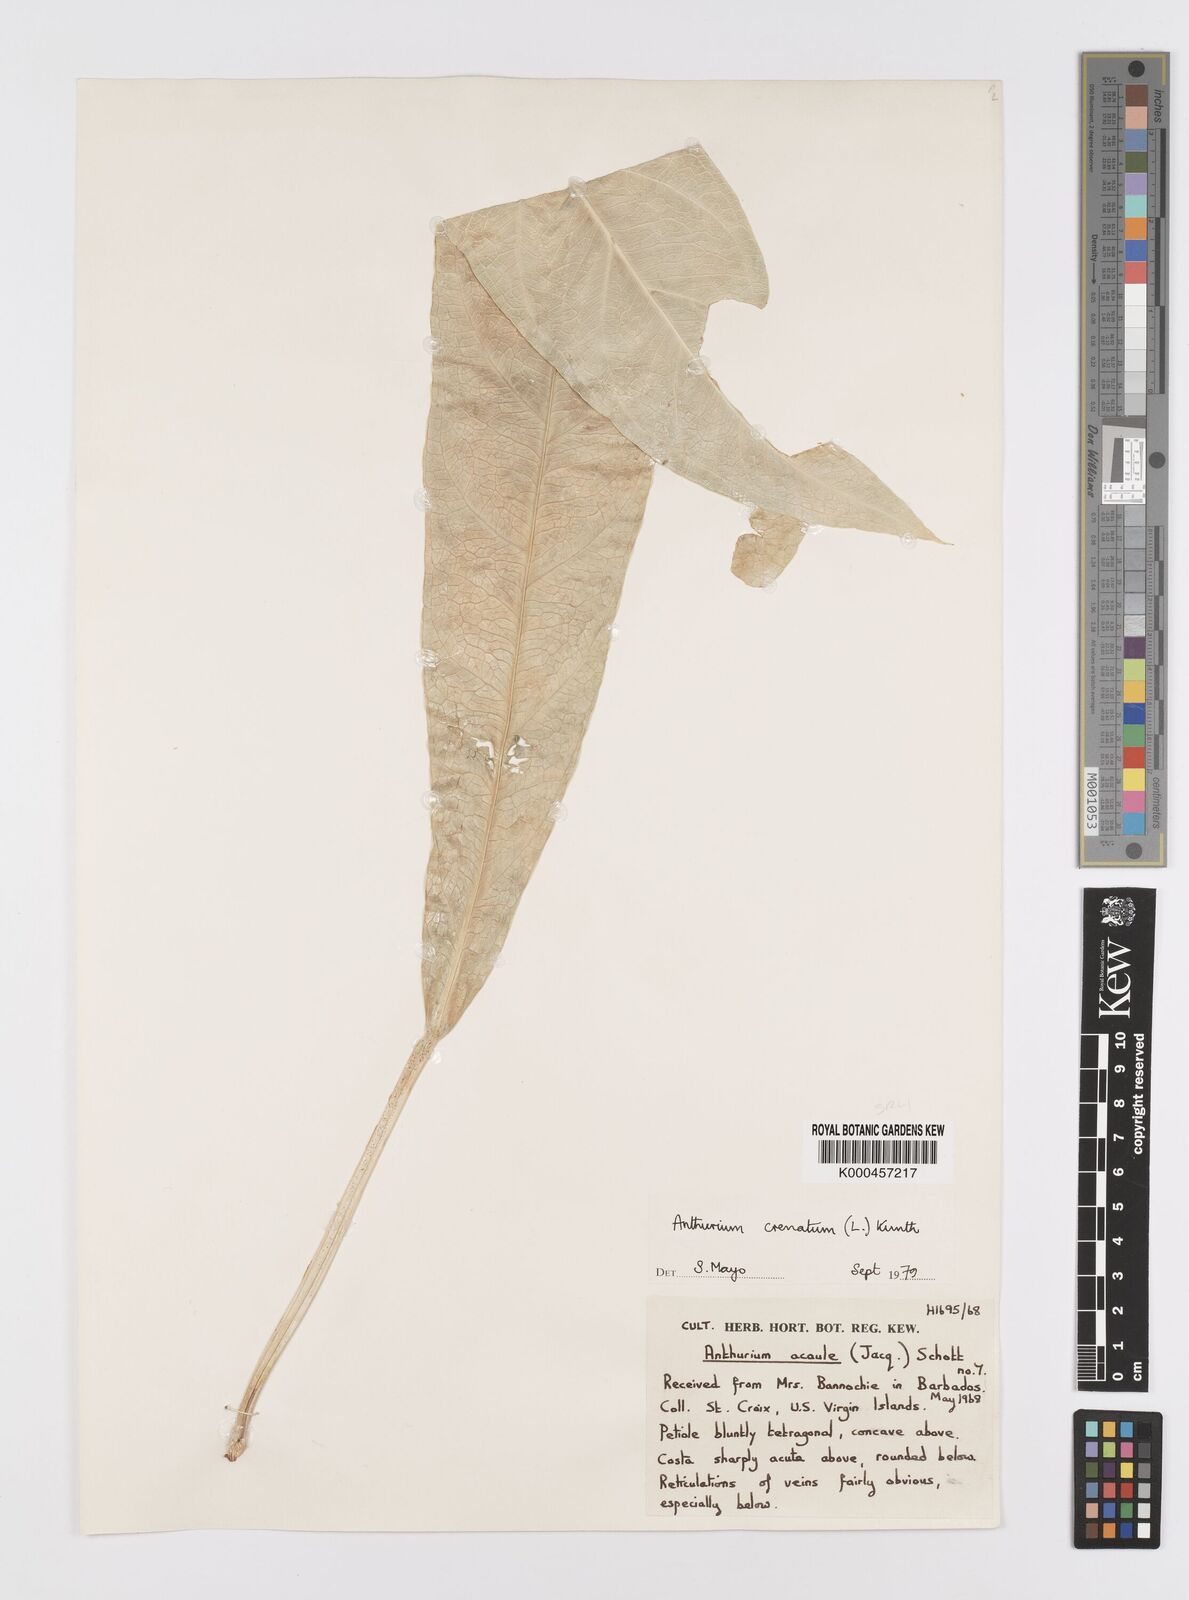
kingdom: Plantae
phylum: Tracheophyta
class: Liliopsida
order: Alismatales
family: Araceae
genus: Anthurium
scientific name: Anthurium crenatum
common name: Scalloped laceleaf
